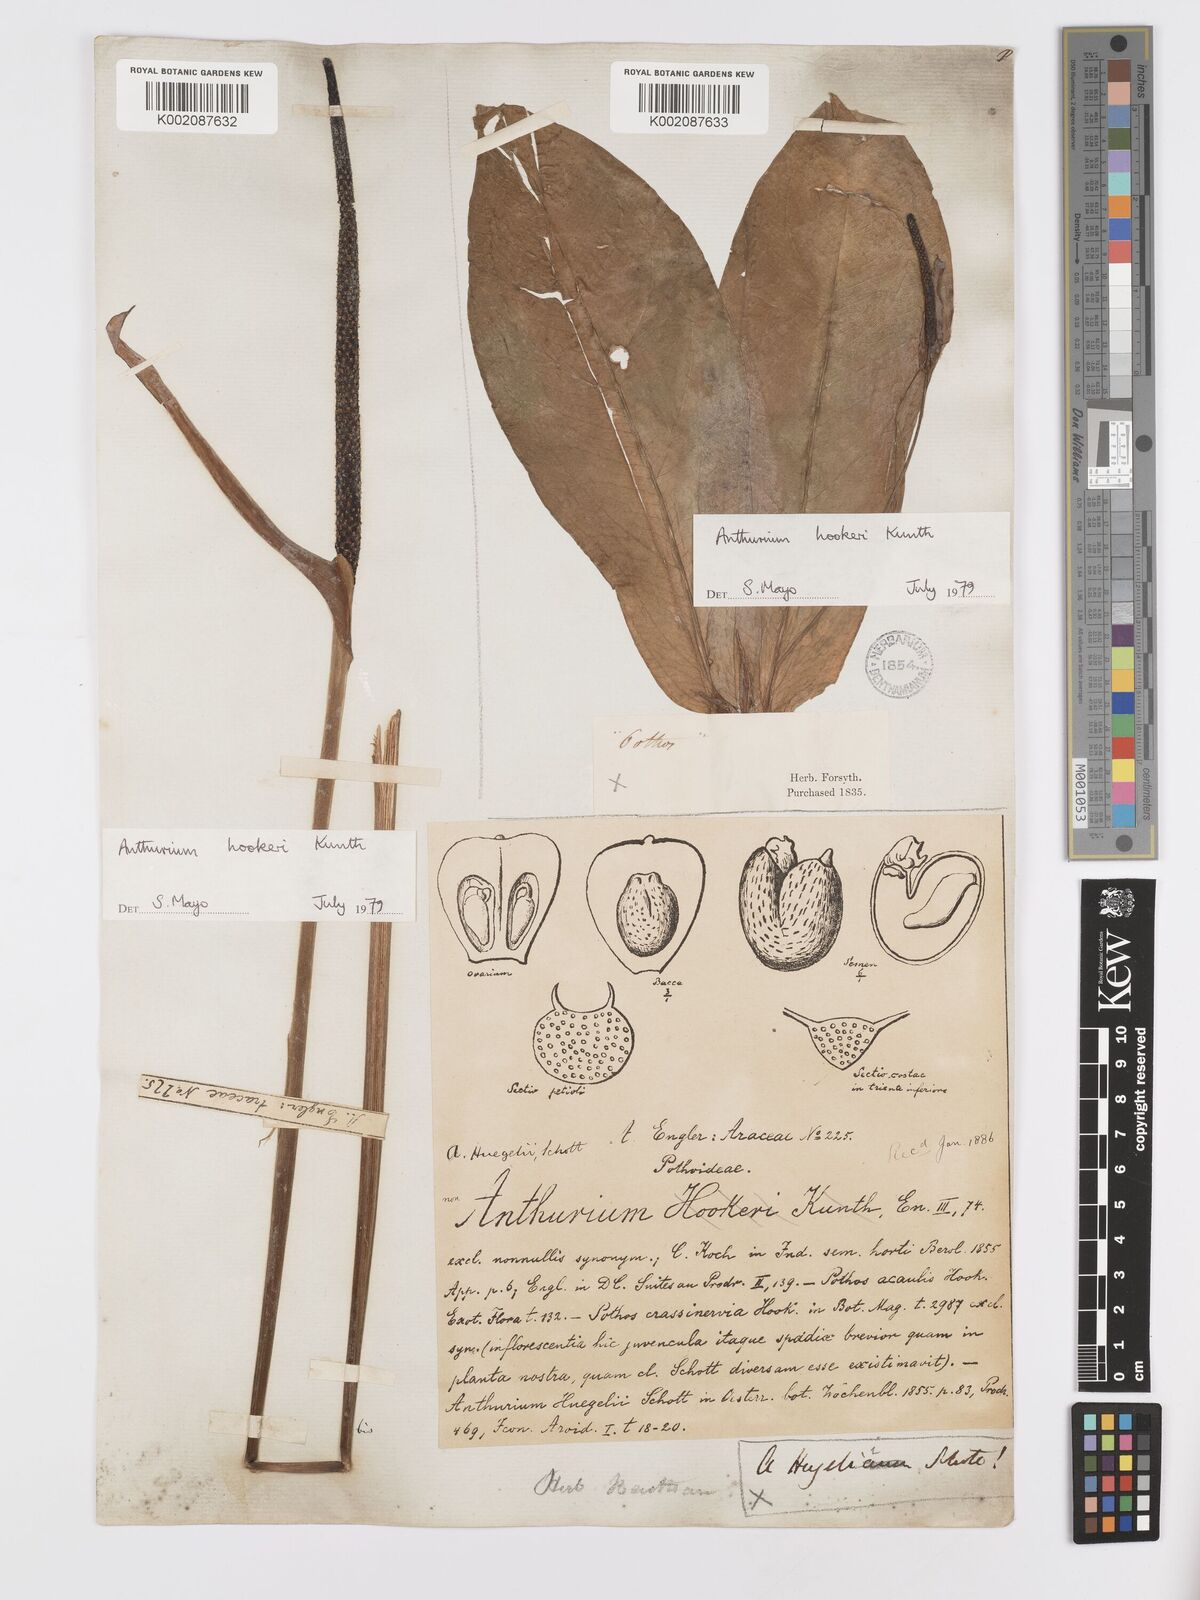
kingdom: Plantae
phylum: Tracheophyta
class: Liliopsida
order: Alismatales
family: Araceae
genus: Anthurium
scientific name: Anthurium hookeri
